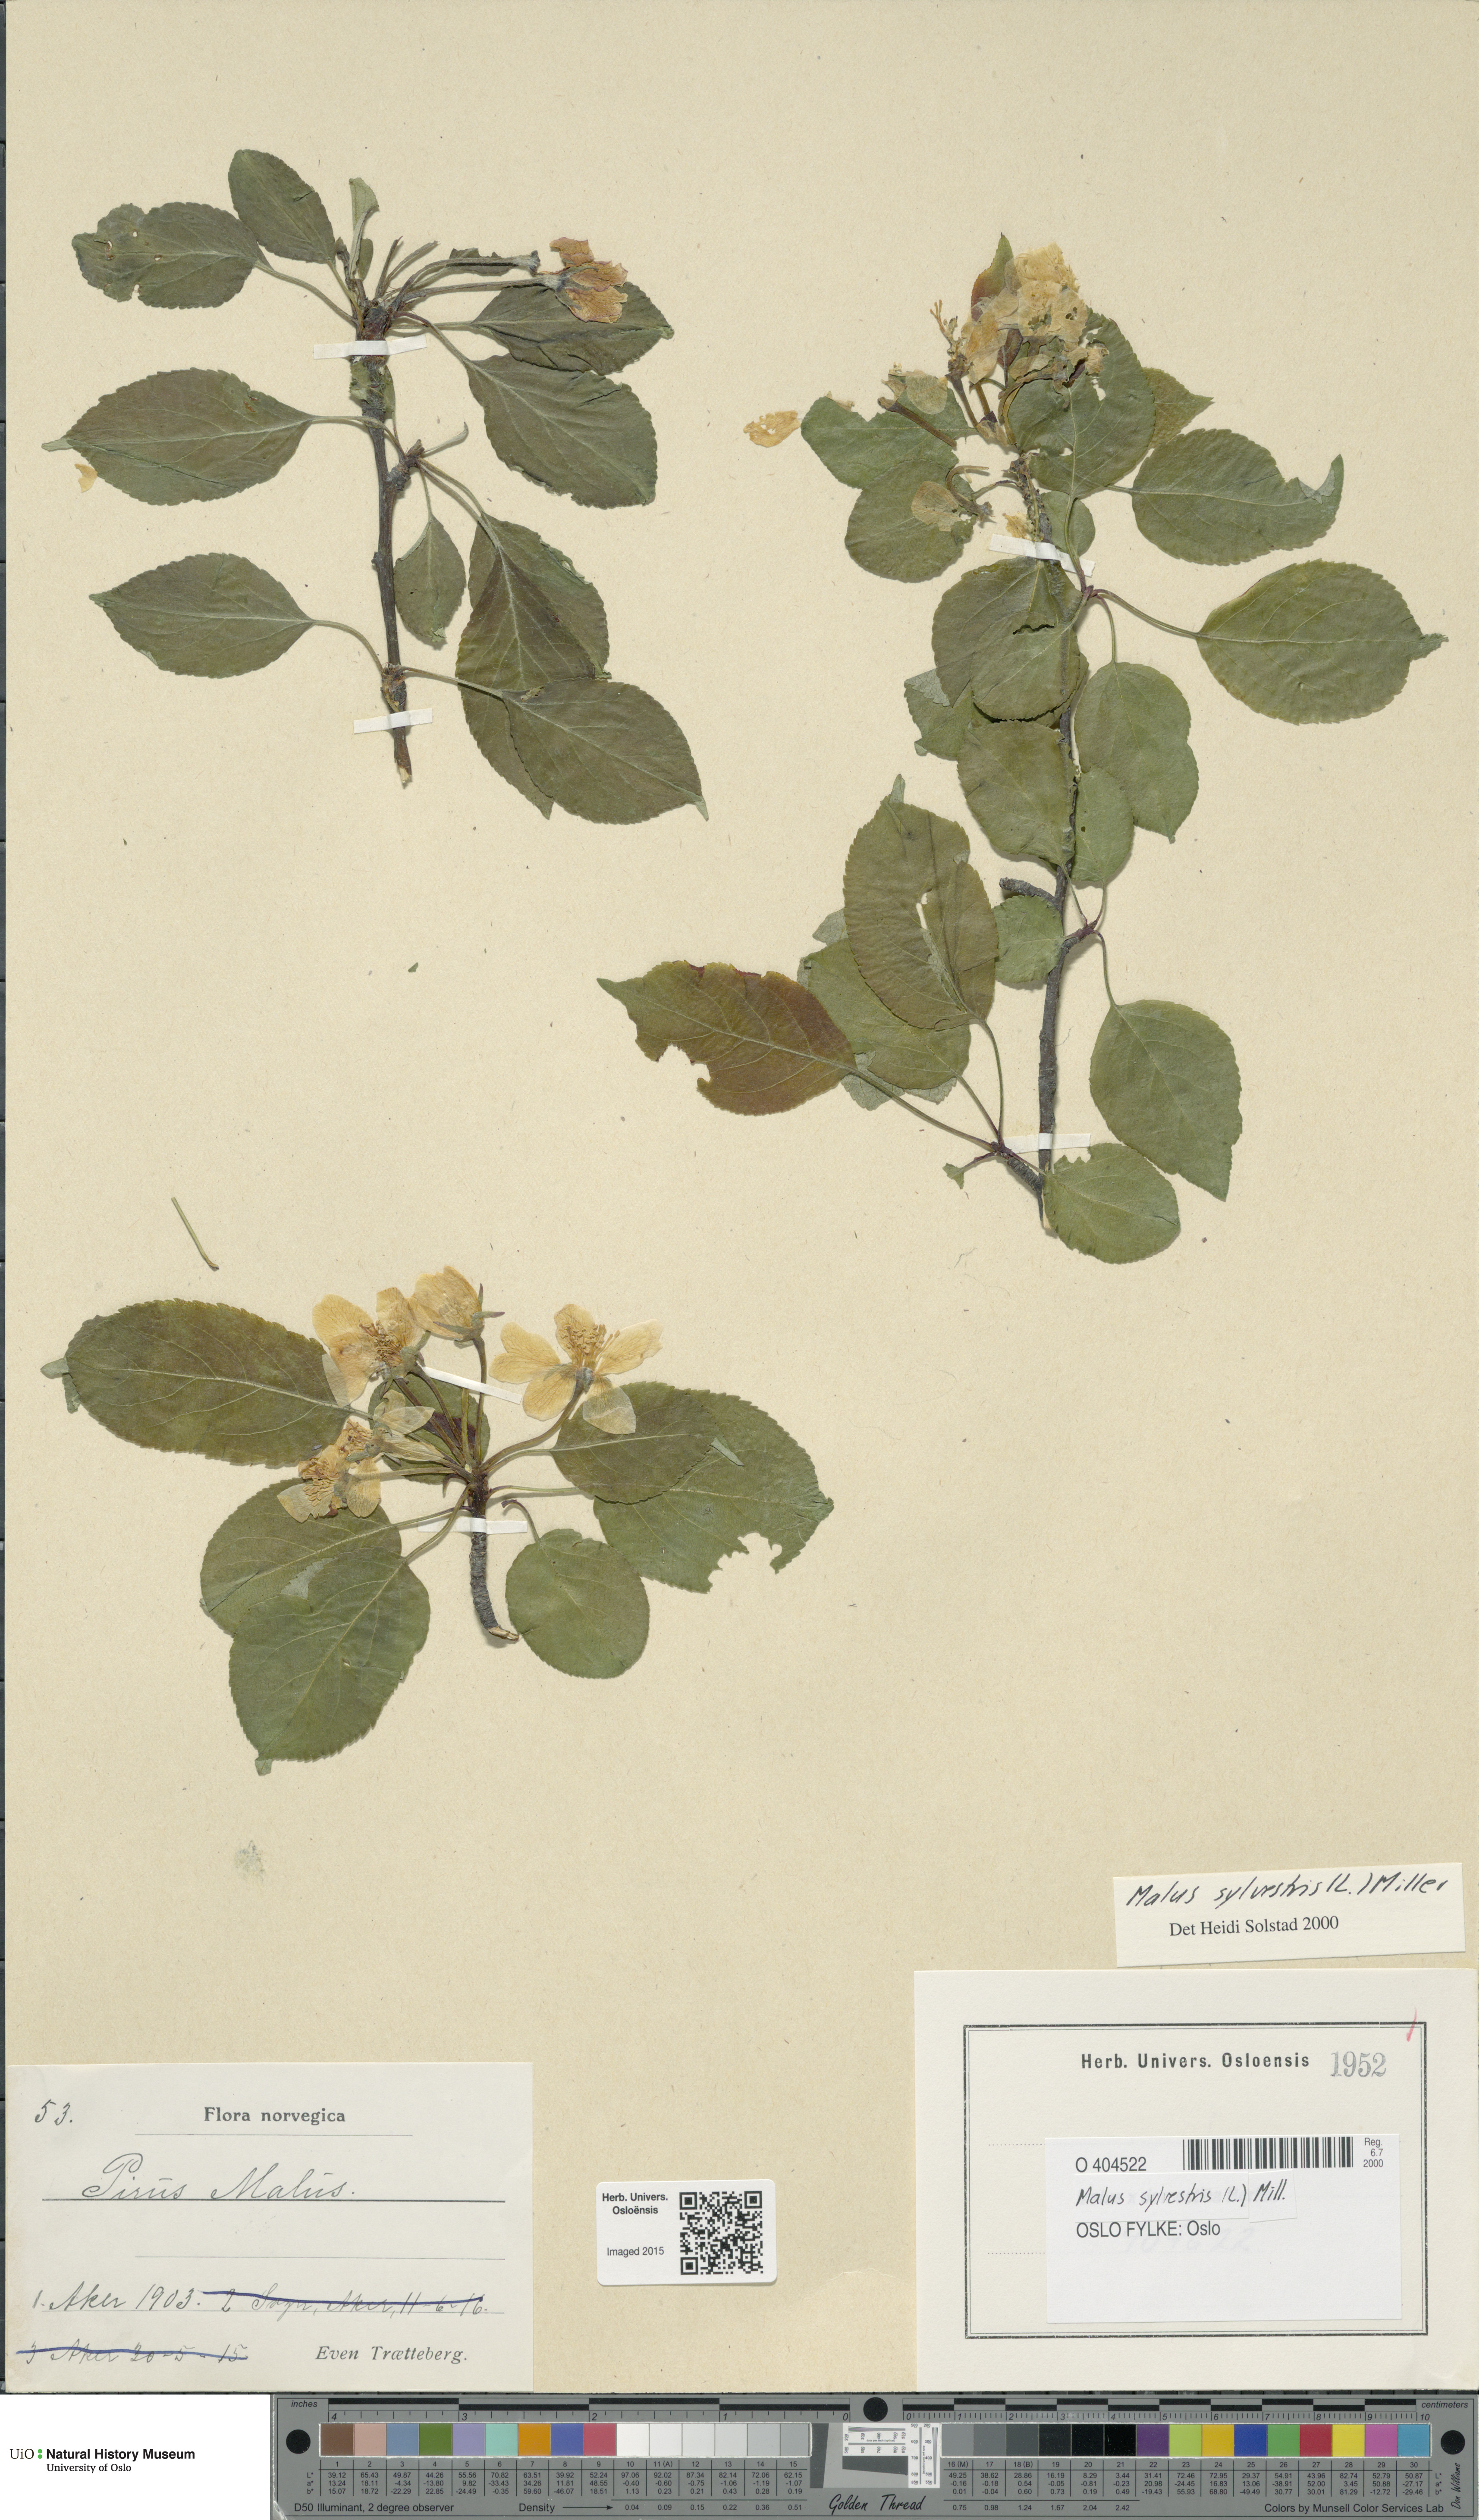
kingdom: Plantae
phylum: Tracheophyta
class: Magnoliopsida
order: Rosales
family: Rosaceae
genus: Malus
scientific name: Malus sylvestris
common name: Crab apple
